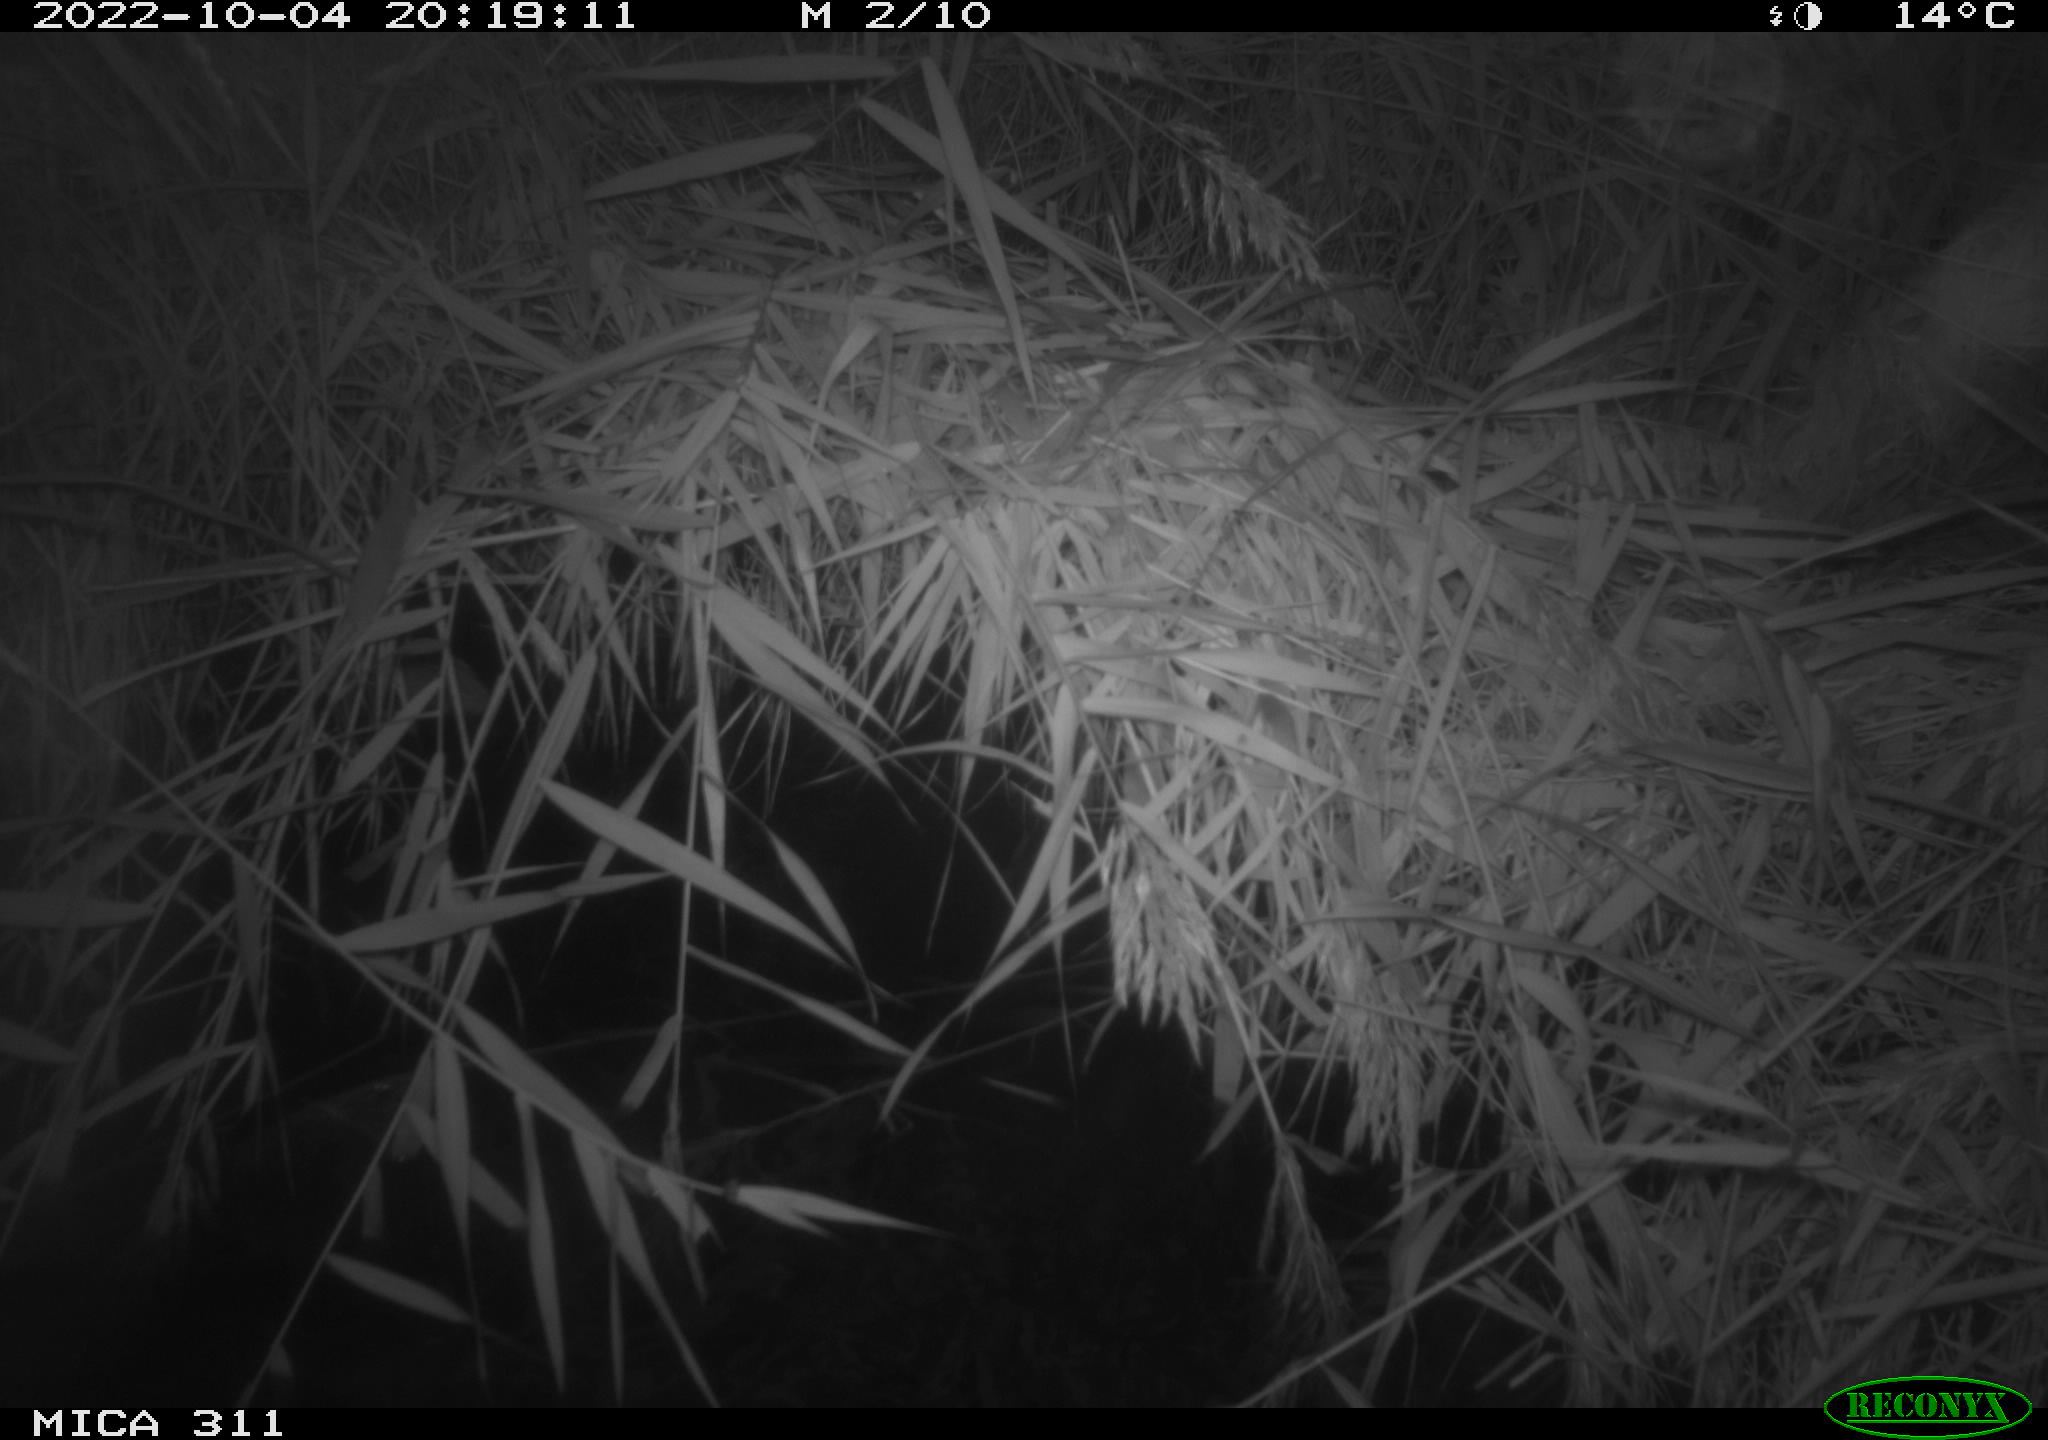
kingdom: Animalia
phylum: Chordata
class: Mammalia
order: Rodentia
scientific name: Rodentia
